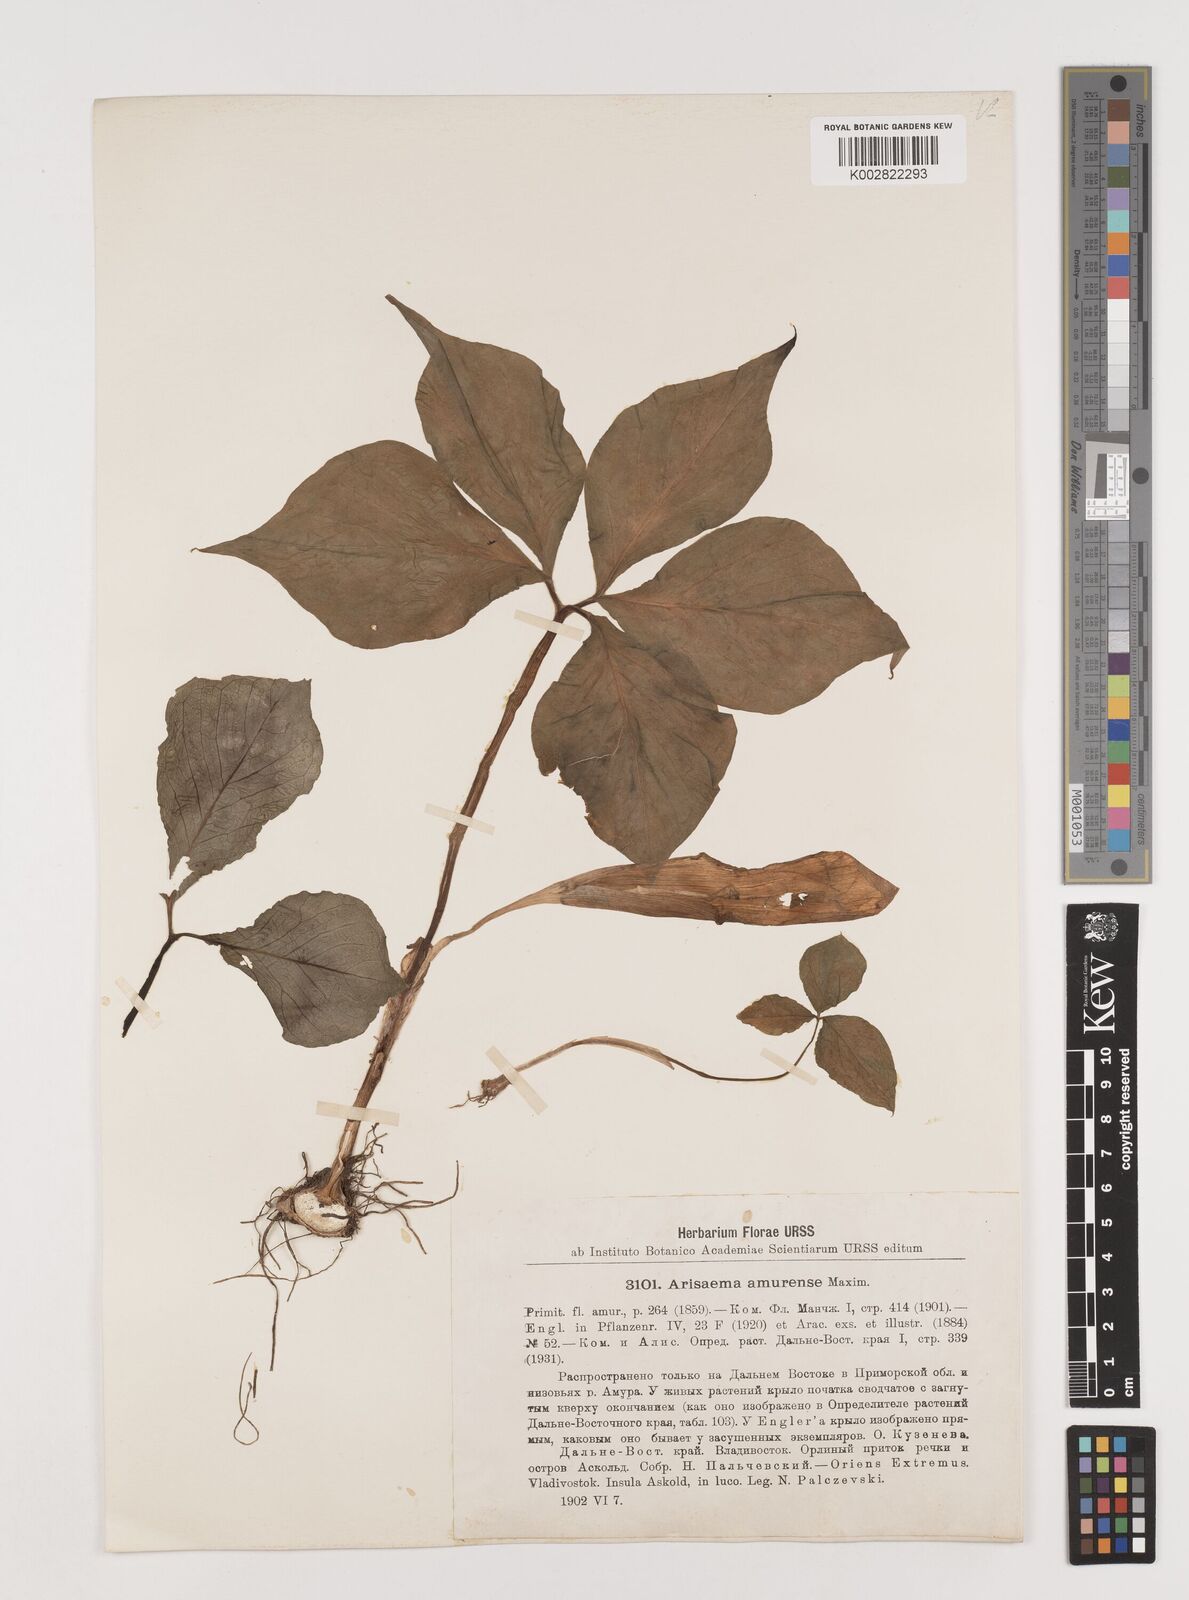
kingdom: Plantae
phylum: Tracheophyta
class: Liliopsida
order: Alismatales
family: Araceae
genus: Arisaema
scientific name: Arisaema amurense
